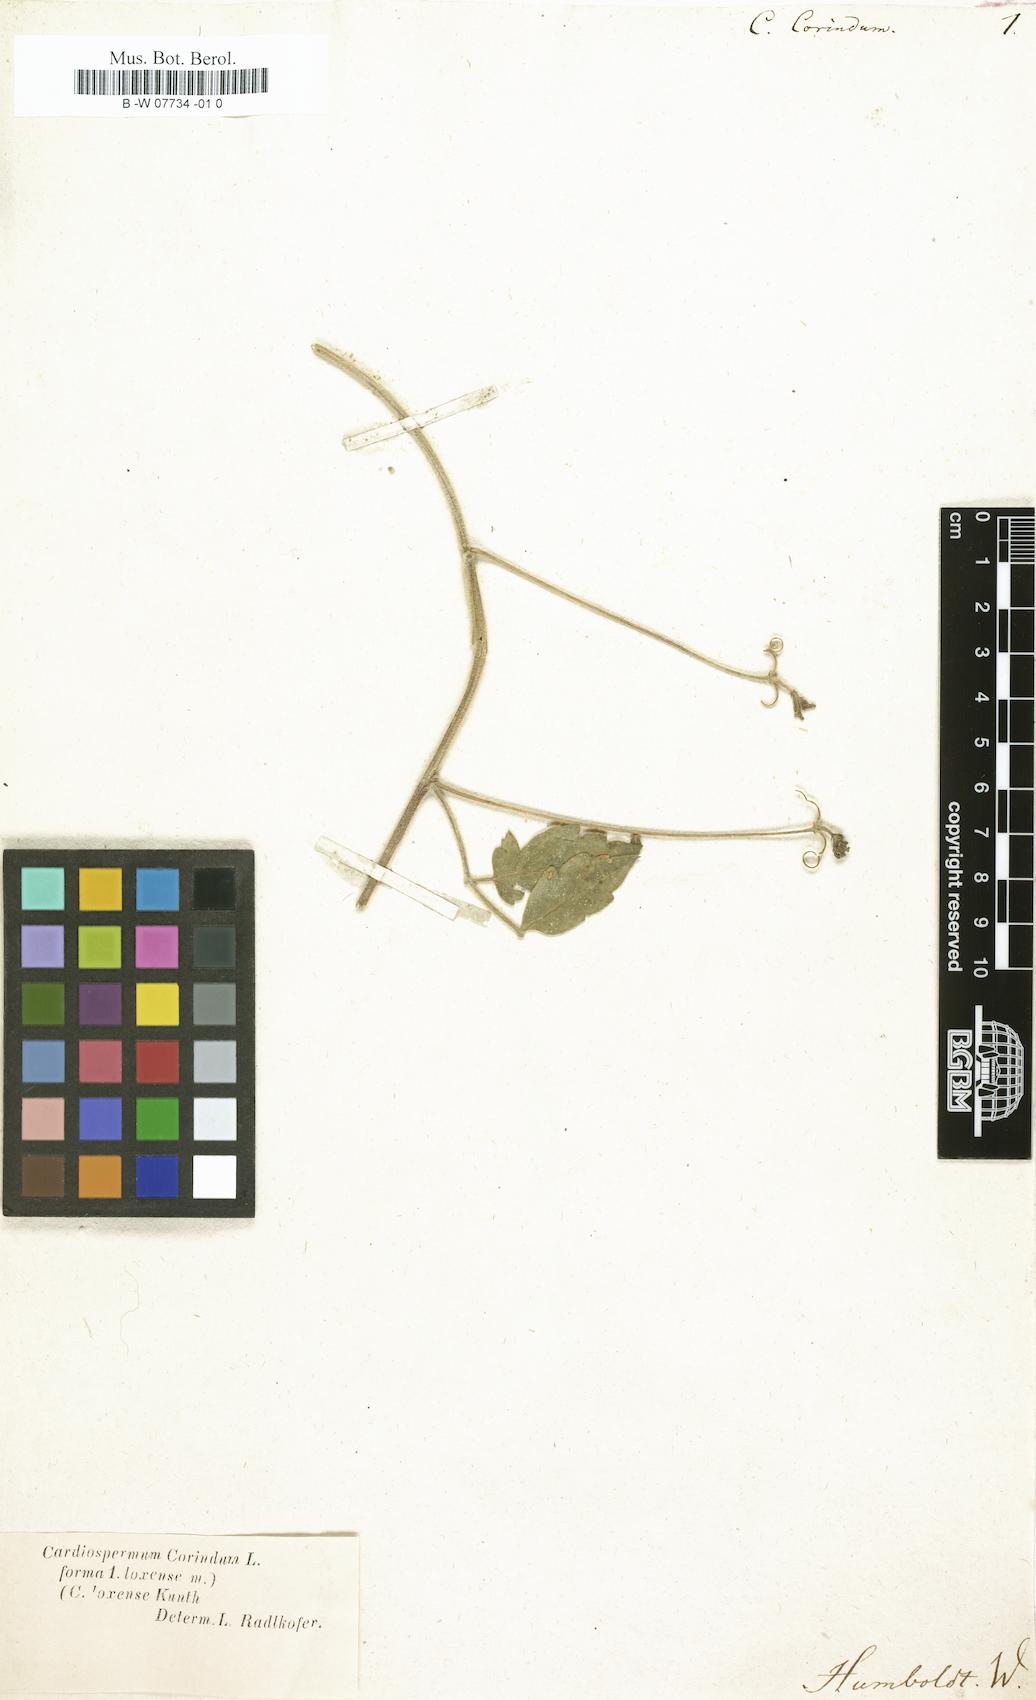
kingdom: Plantae
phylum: Tracheophyta
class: Magnoliopsida
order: Sapindales
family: Sapindaceae
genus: Cardiospermum
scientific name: Cardiospermum corindum
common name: Faux persil
